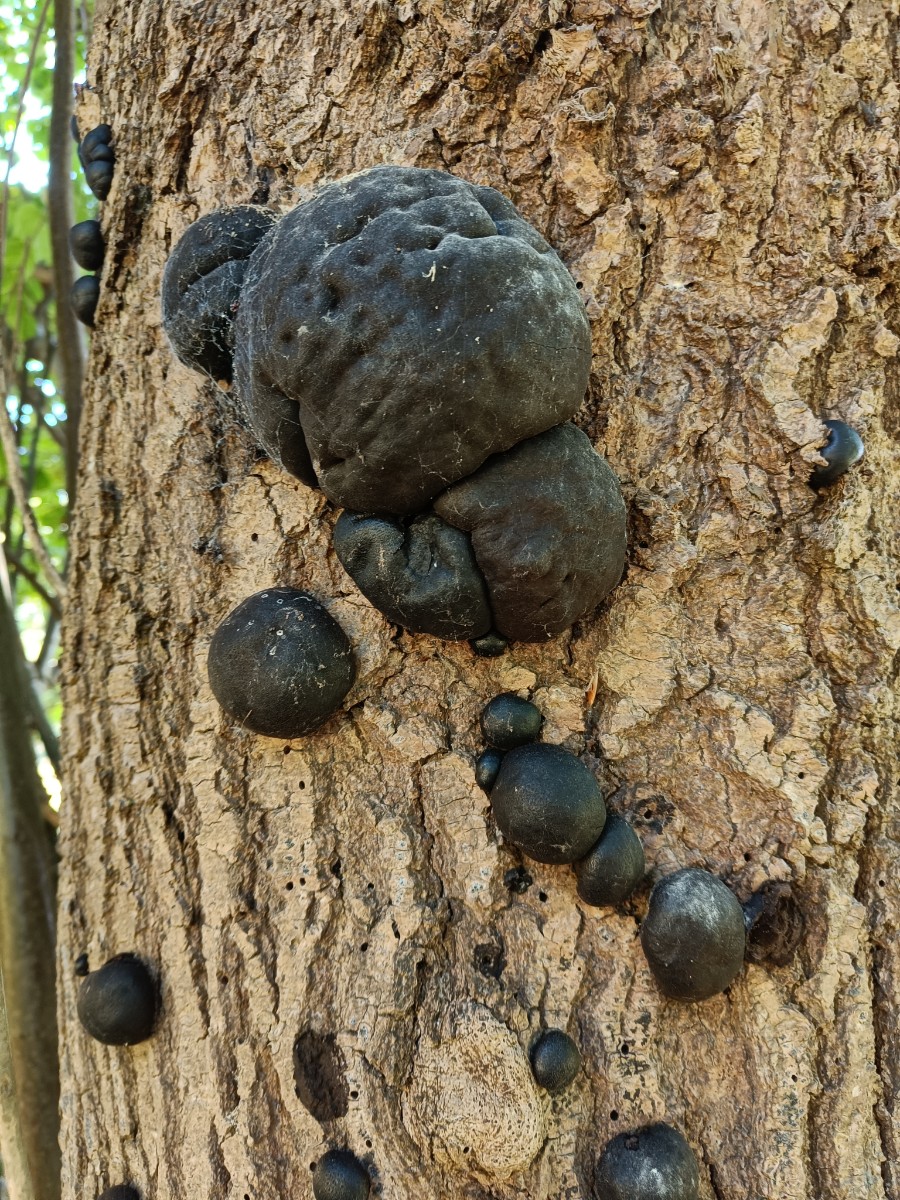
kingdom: Fungi
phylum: Ascomycota
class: Sordariomycetes
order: Xylariales
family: Hypoxylaceae
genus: Daldinia
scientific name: Daldinia concentrica
